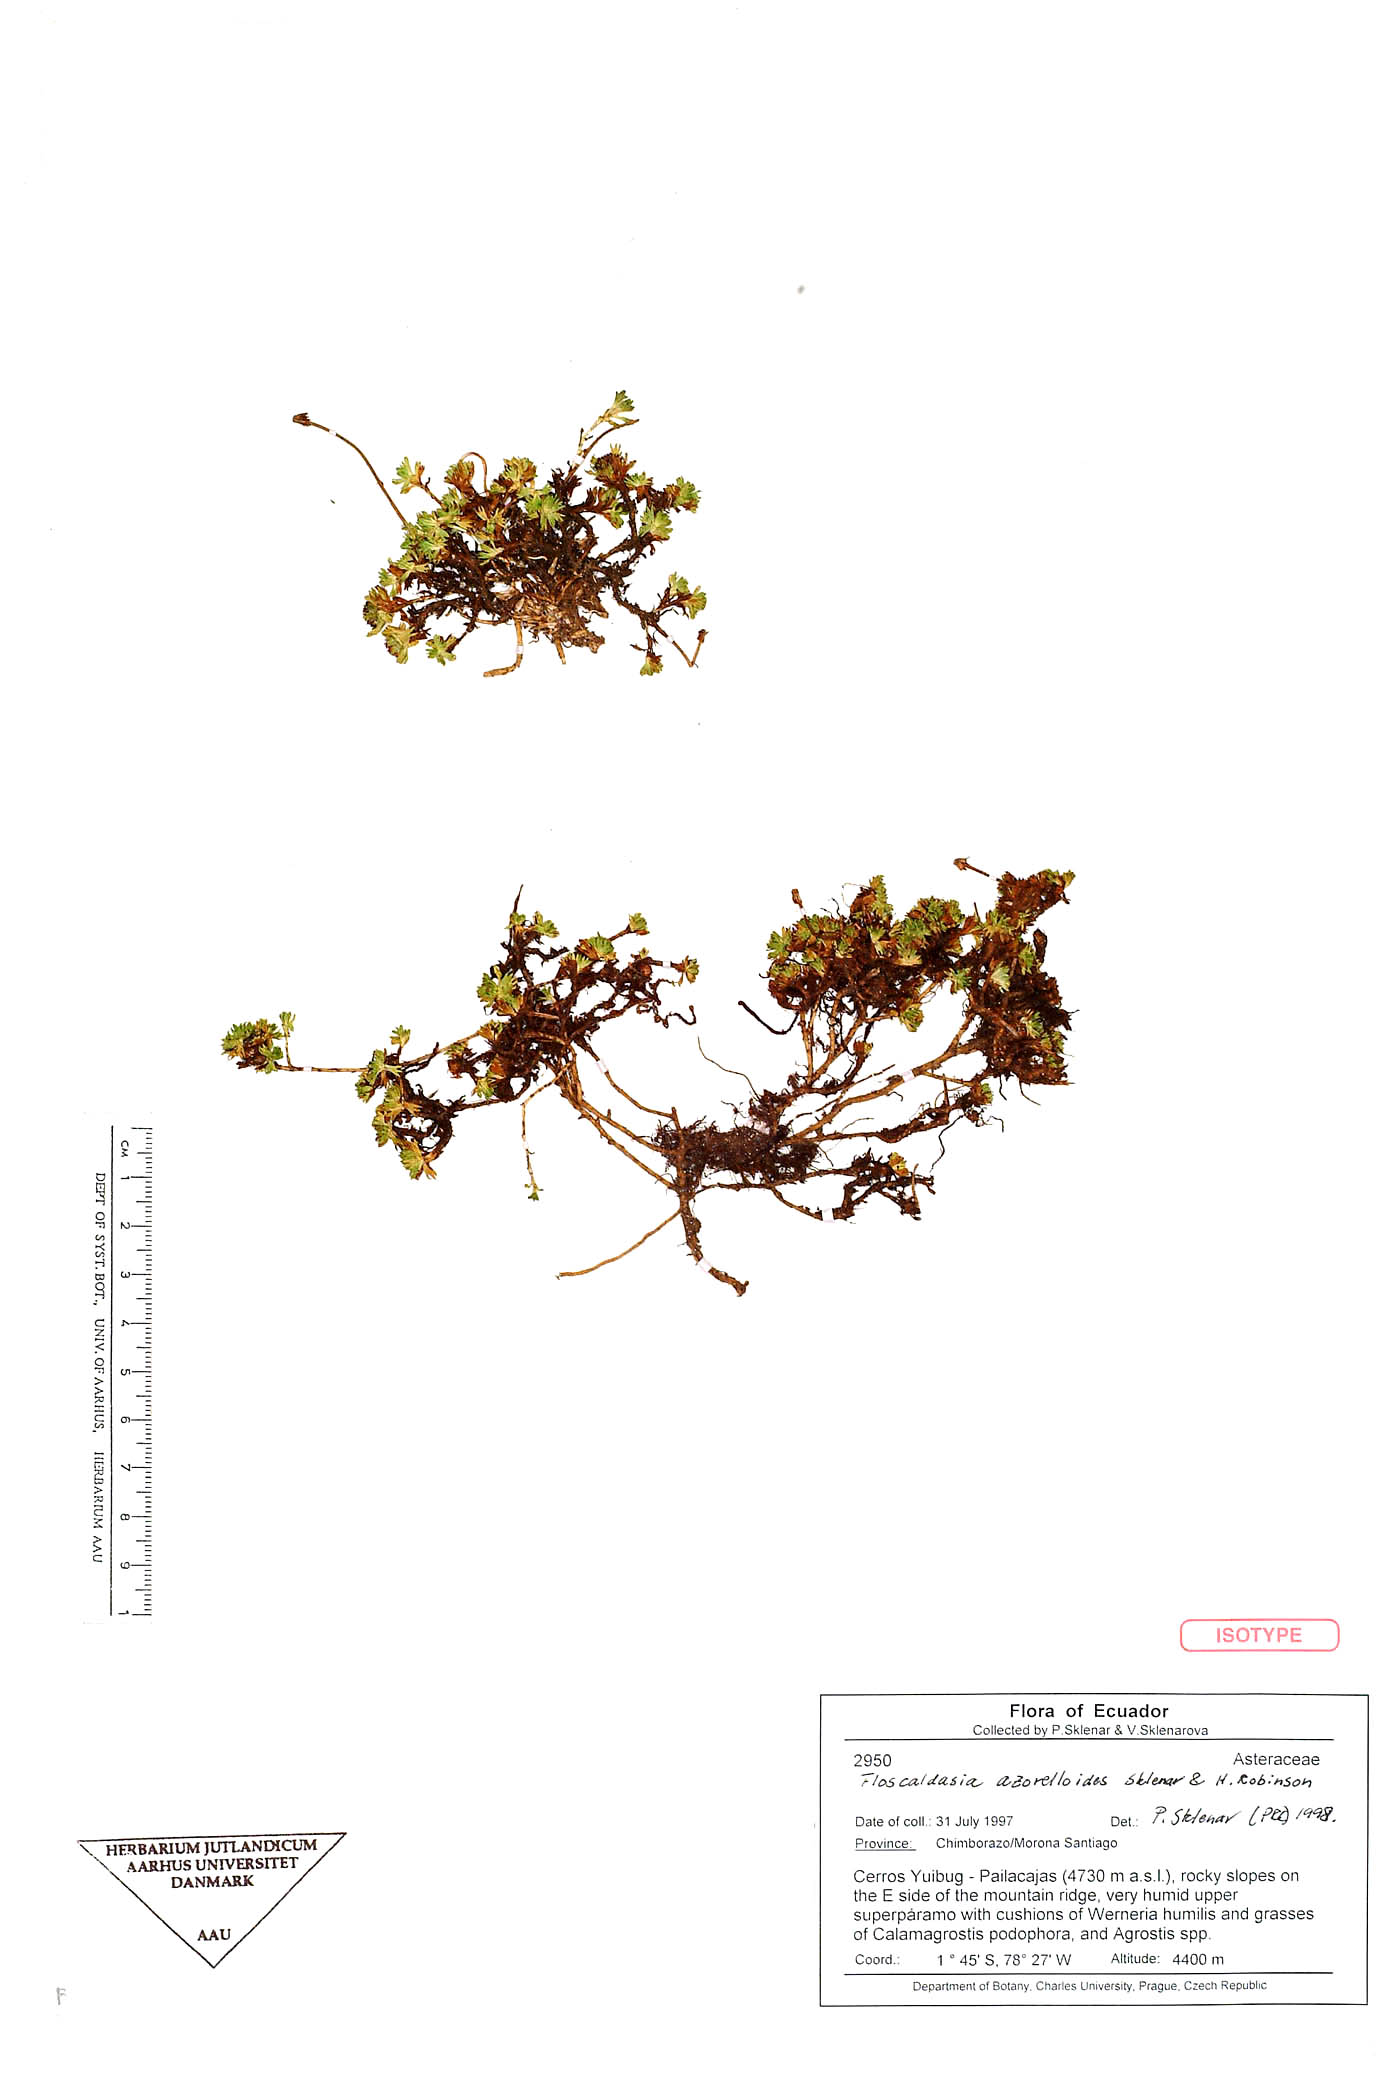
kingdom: Plantae
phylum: Tracheophyta
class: Magnoliopsida
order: Asterales
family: Asteraceae
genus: Floscaldasia
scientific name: Floscaldasia azorelloides
